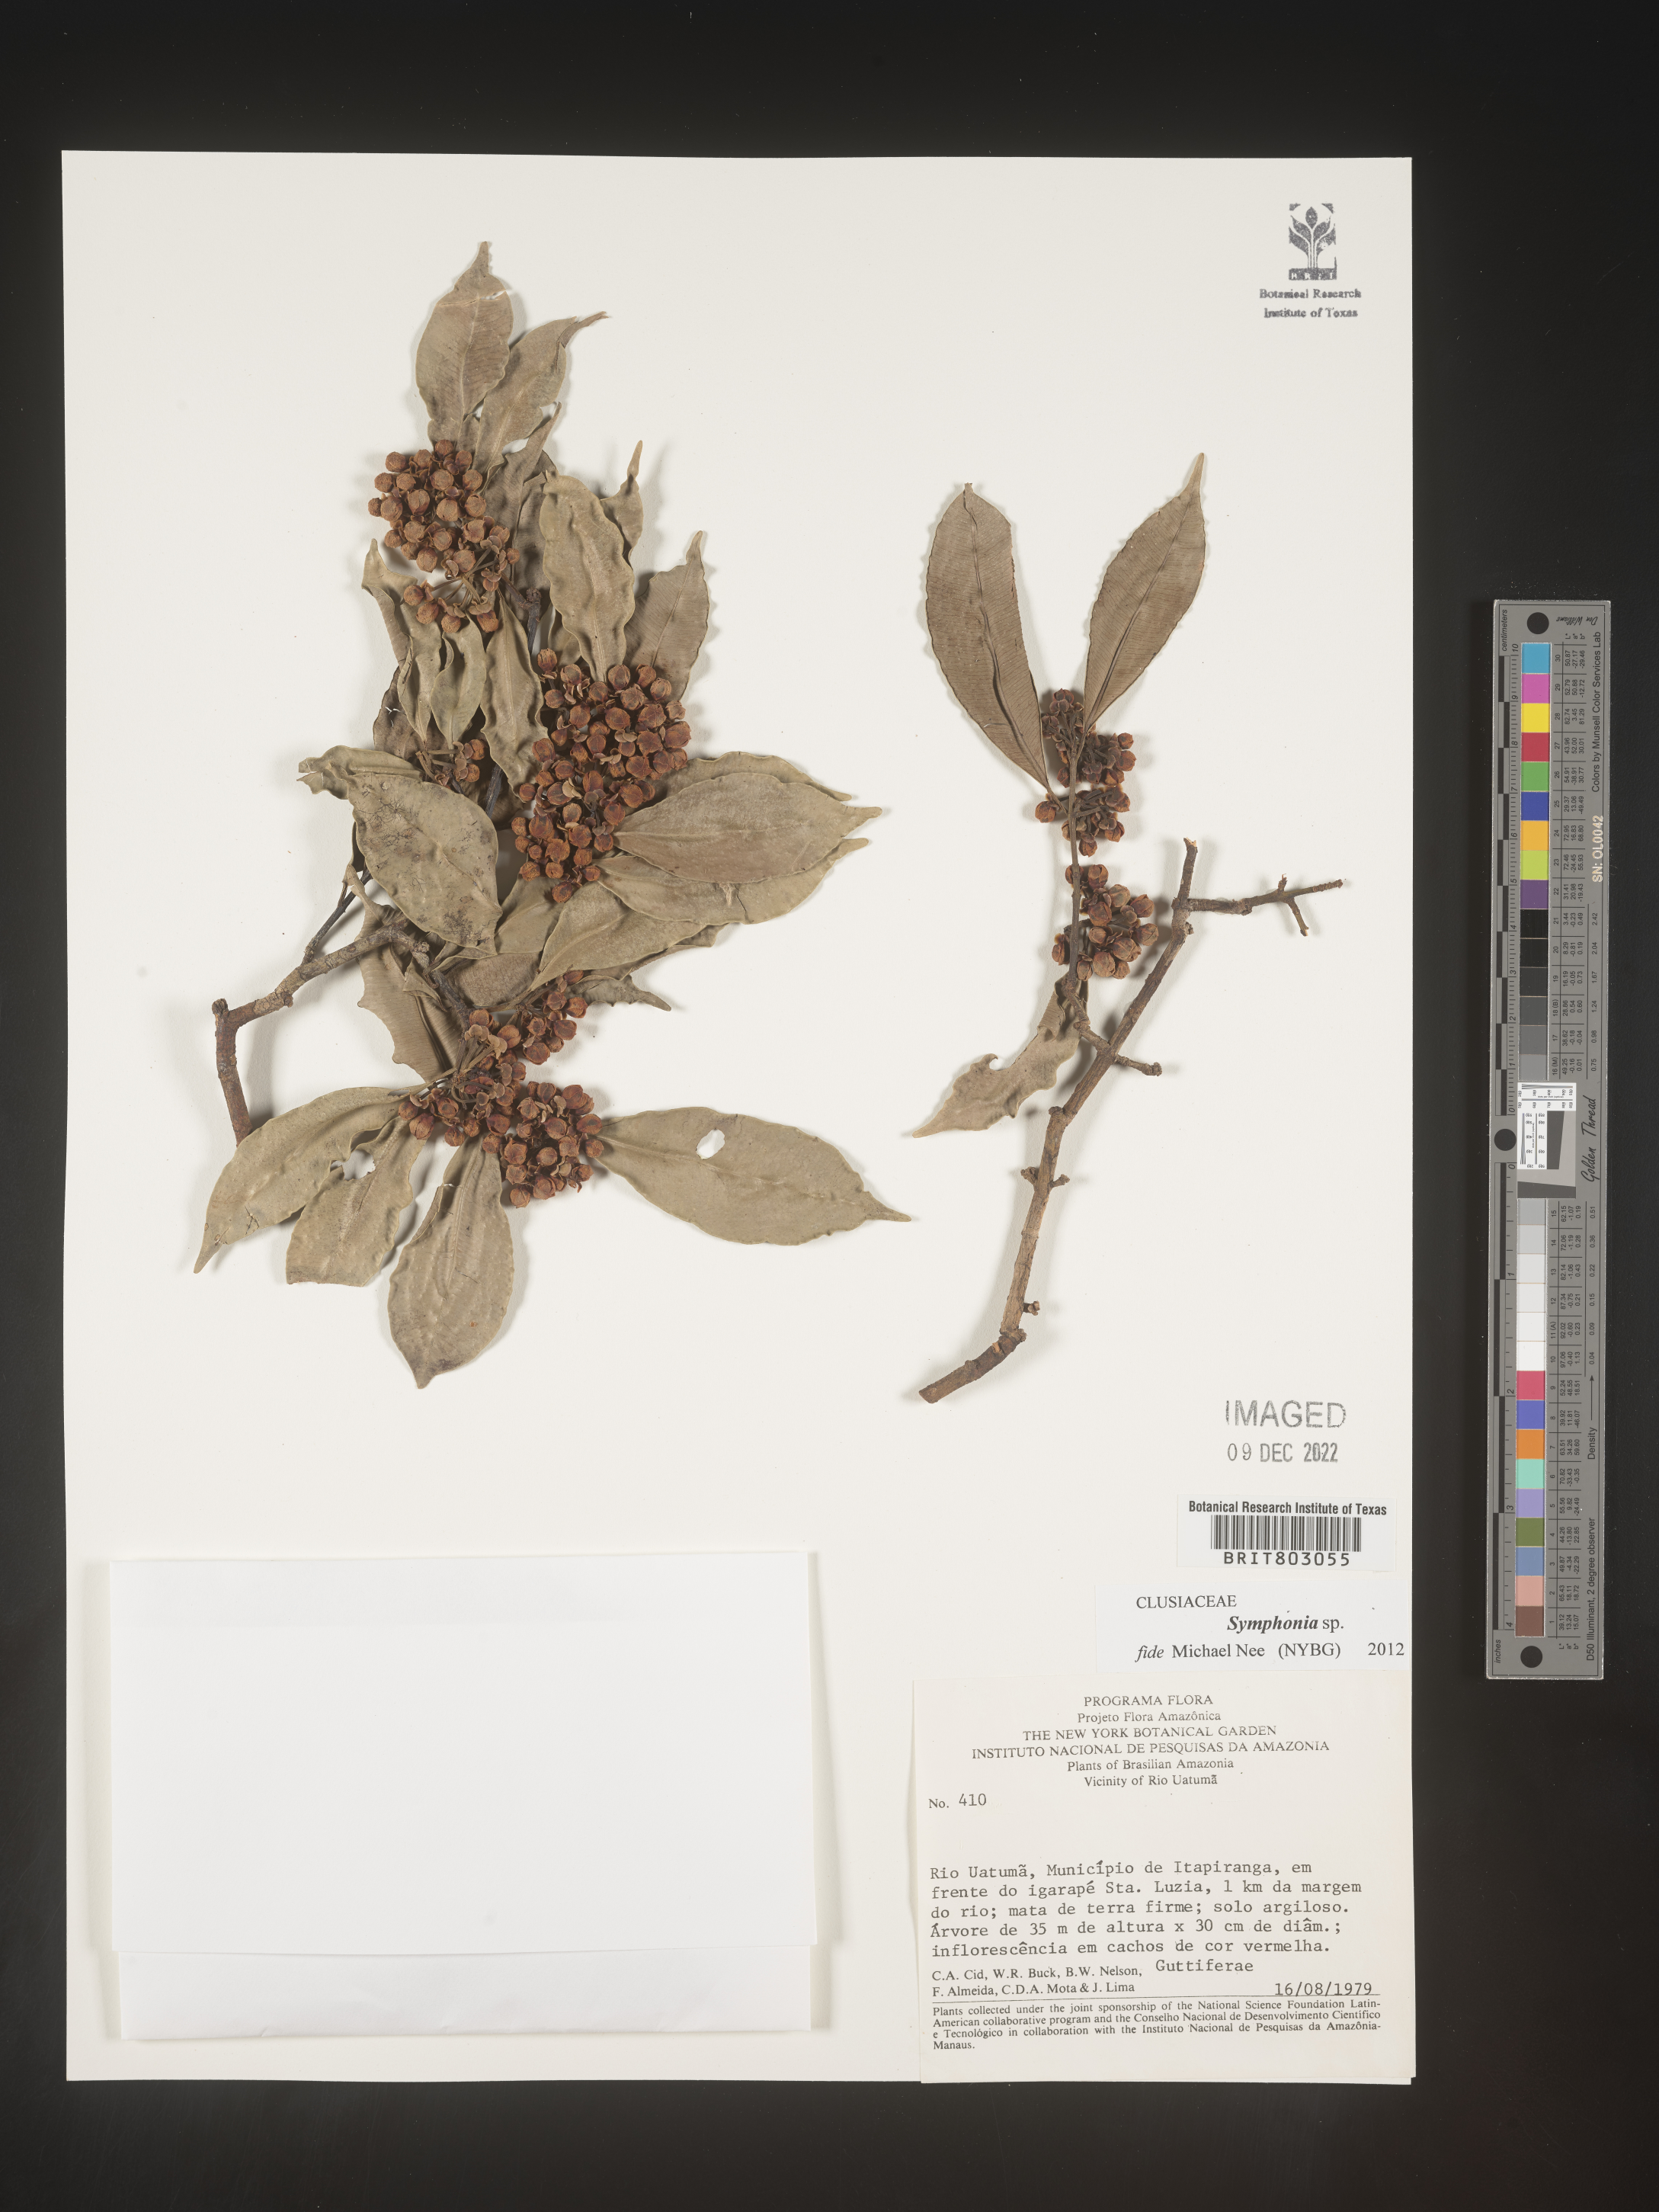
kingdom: Plantae
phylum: Tracheophyta
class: Magnoliopsida
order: Malpighiales
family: Clusiaceae
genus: Symphonia
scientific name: Symphonia
